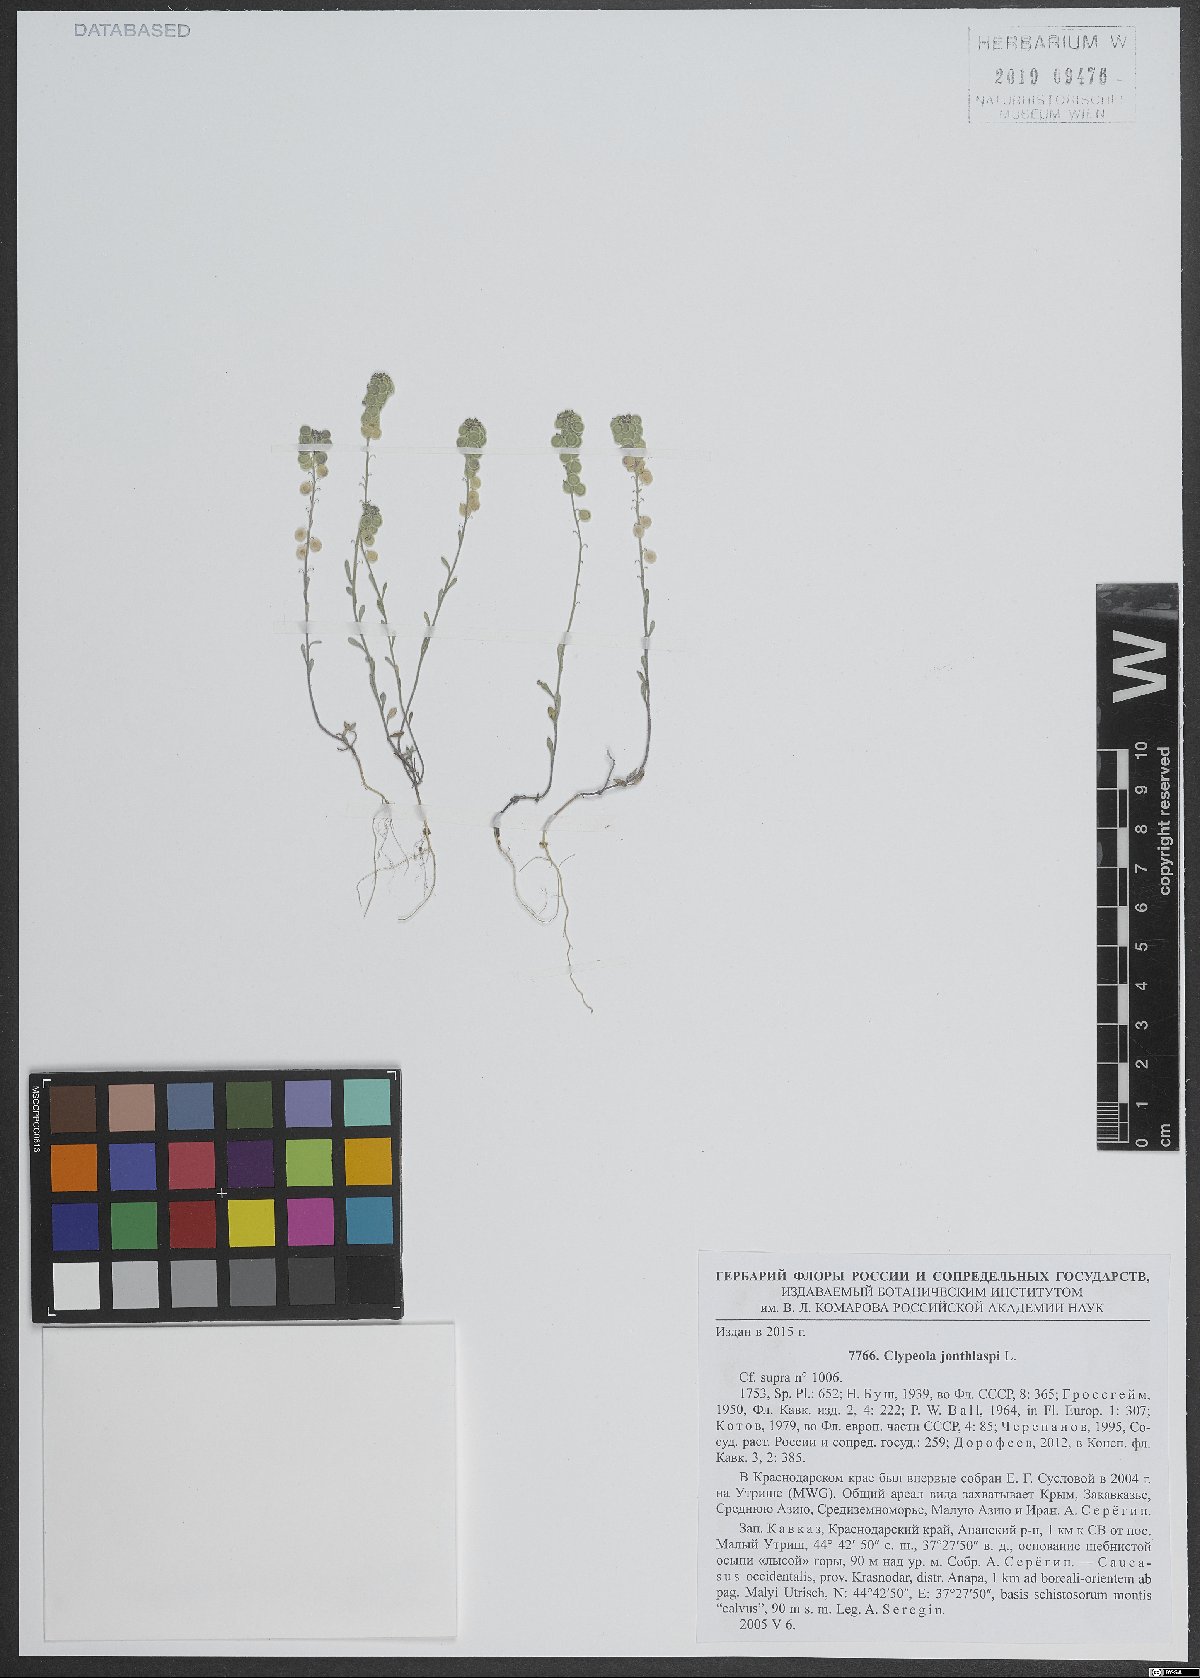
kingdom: Plantae
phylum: Tracheophyta
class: Magnoliopsida
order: Brassicales
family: Brassicaceae
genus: Clypeola
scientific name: Clypeola jonthlaspi
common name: Disk cress
